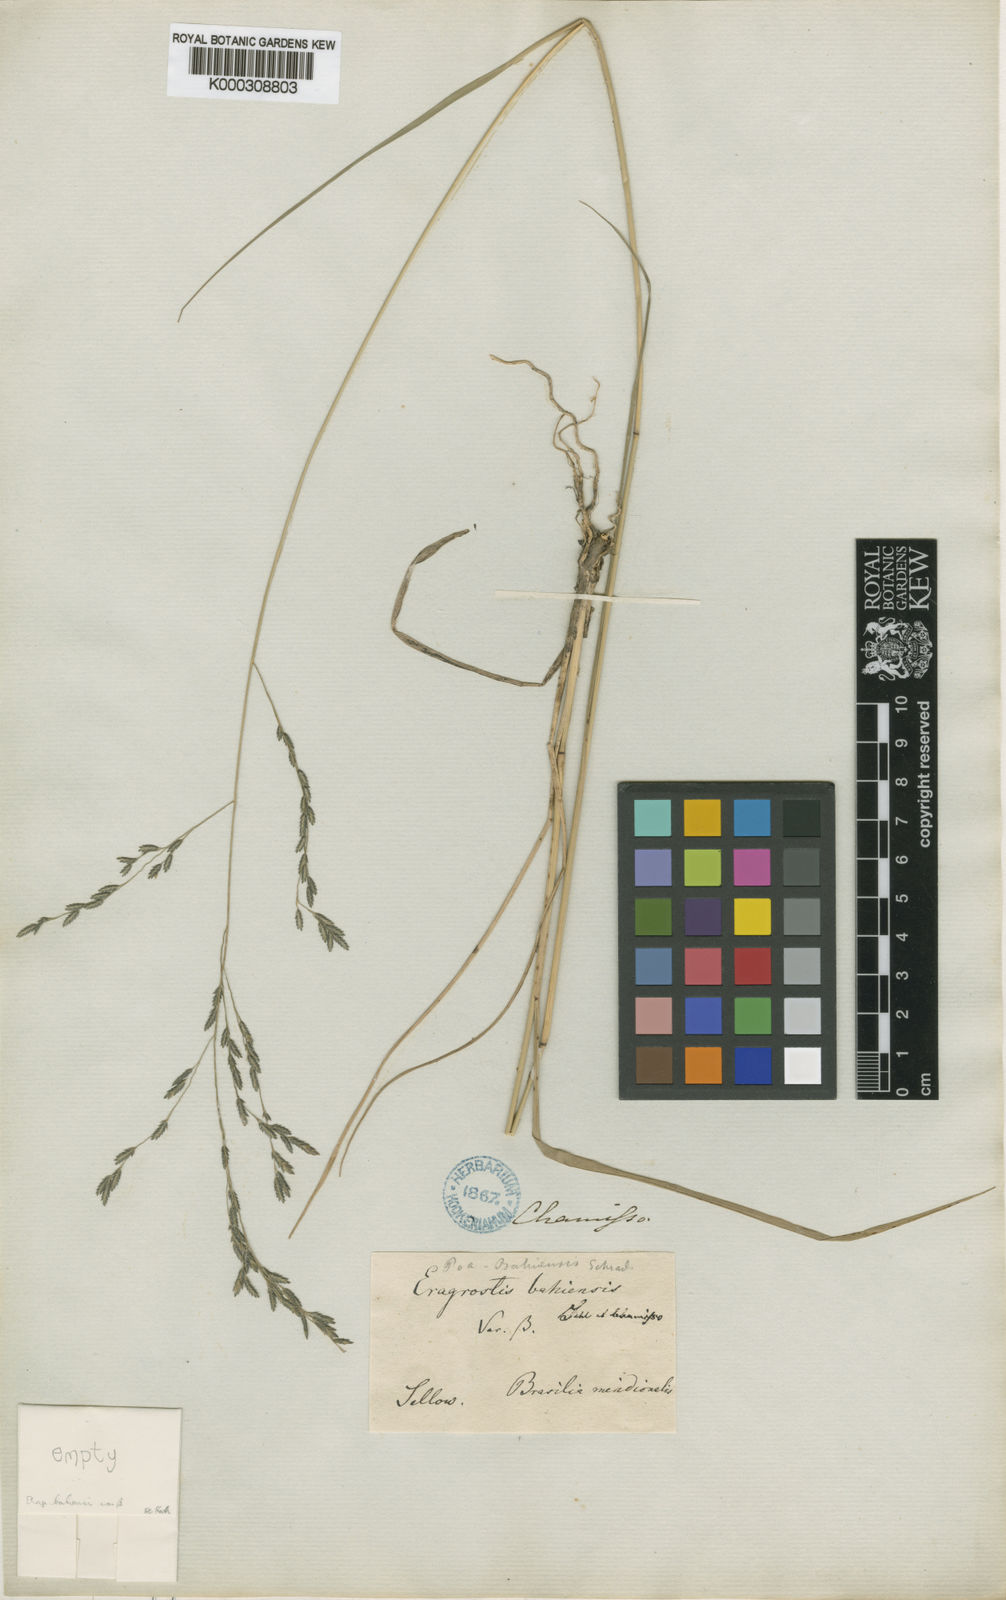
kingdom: Plantae
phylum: Tracheophyta
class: Liliopsida
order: Poales
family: Poaceae
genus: Eragrostis
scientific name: Eragrostis bahiensis
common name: Bahia lovegrass
